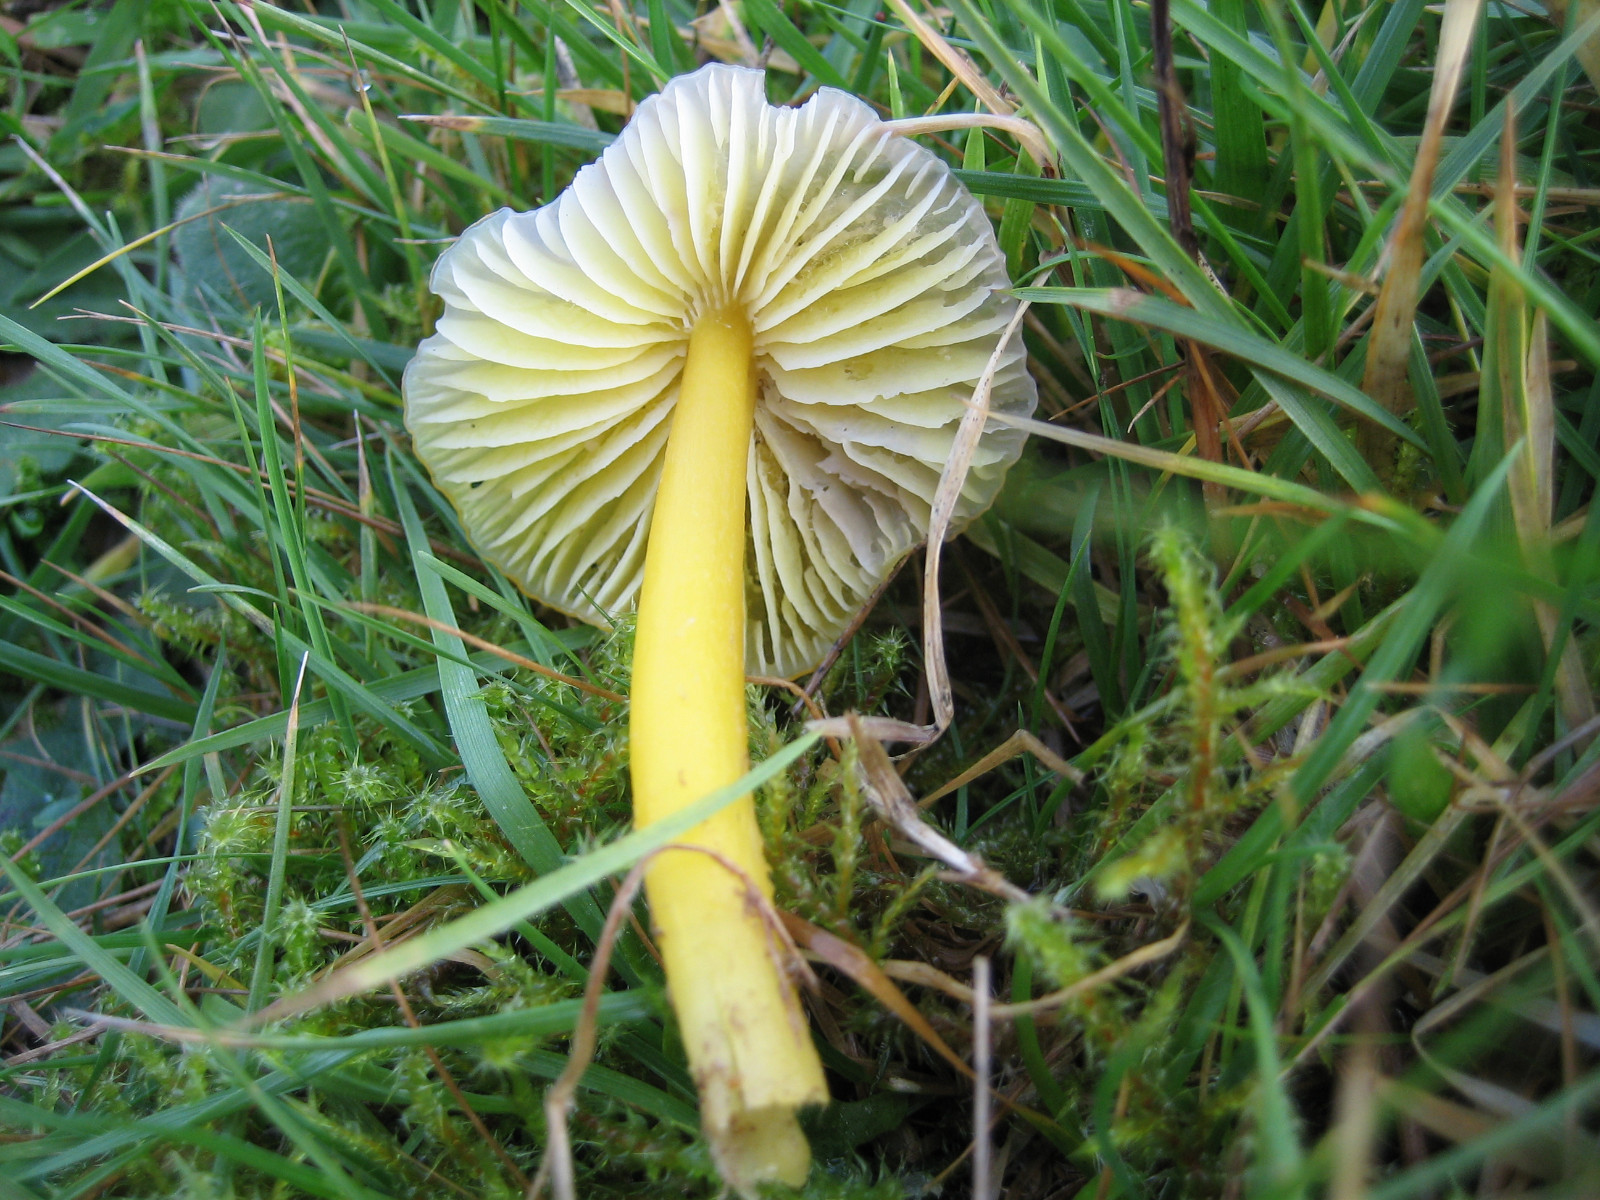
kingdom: Fungi
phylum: Basidiomycota
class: Agaricomycetes
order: Agaricales
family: Hygrophoraceae
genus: Hygrocybe
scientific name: Hygrocybe chlorophana
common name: gul vokshat
